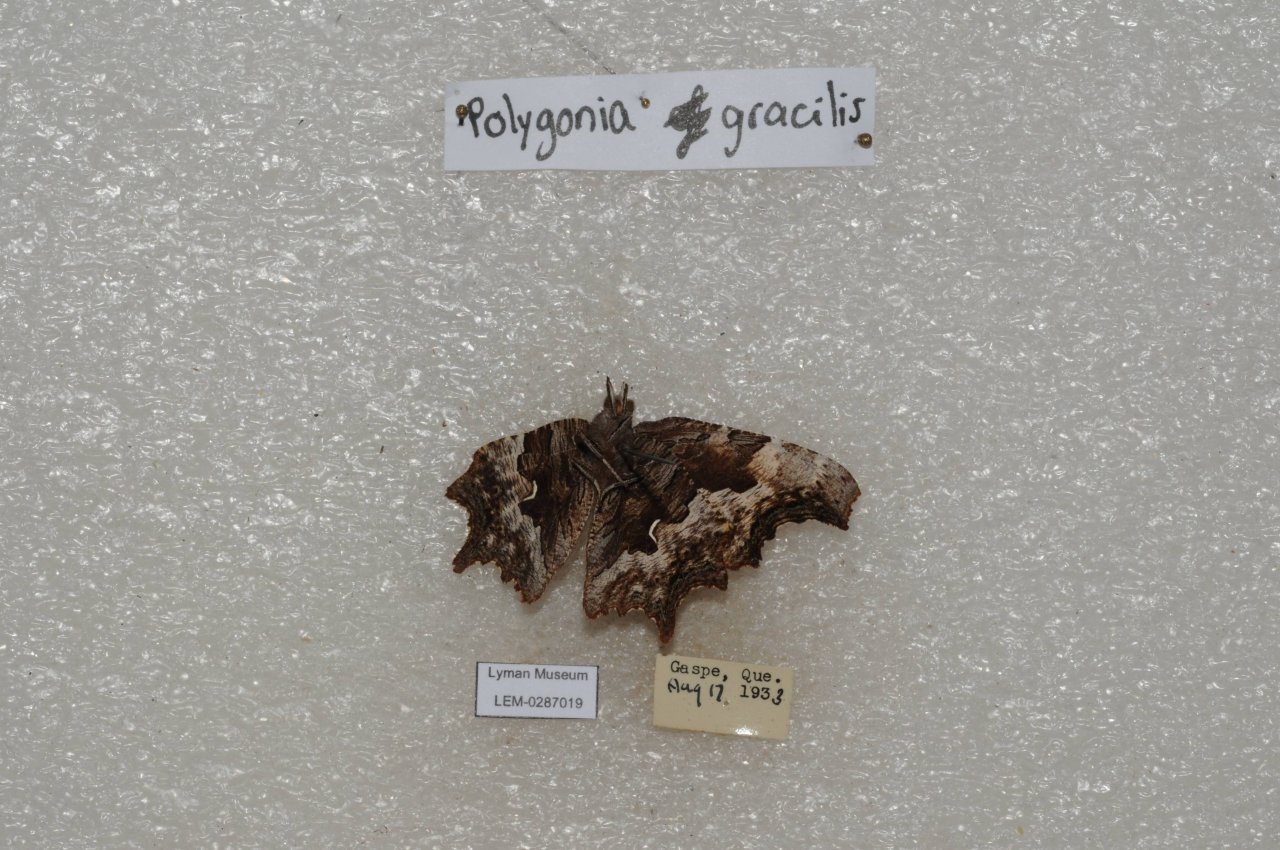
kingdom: Animalia
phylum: Arthropoda
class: Insecta
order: Lepidoptera
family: Nymphalidae
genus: Polygonia
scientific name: Polygonia gracilis
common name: Hoary Comma
